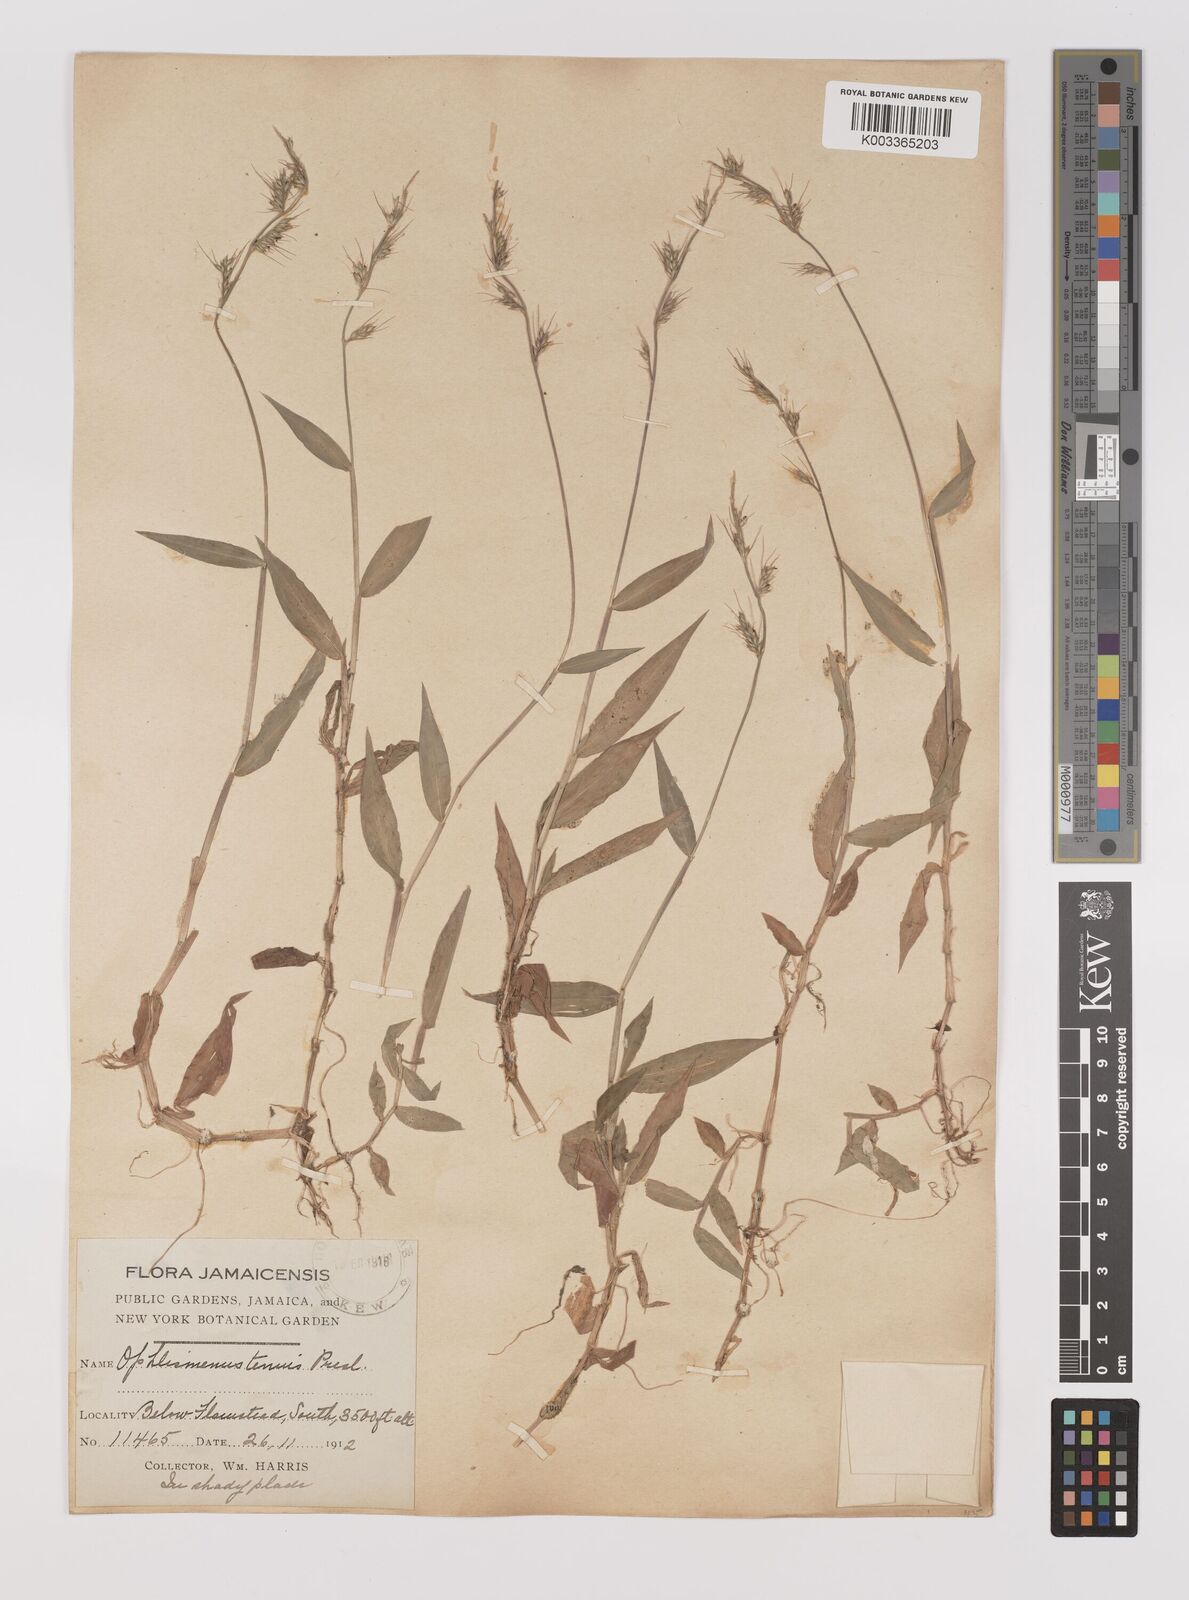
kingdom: Plantae
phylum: Tracheophyta
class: Liliopsida
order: Poales
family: Poaceae
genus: Oplismenus
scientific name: Oplismenus hirtellus
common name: Basketgrass
